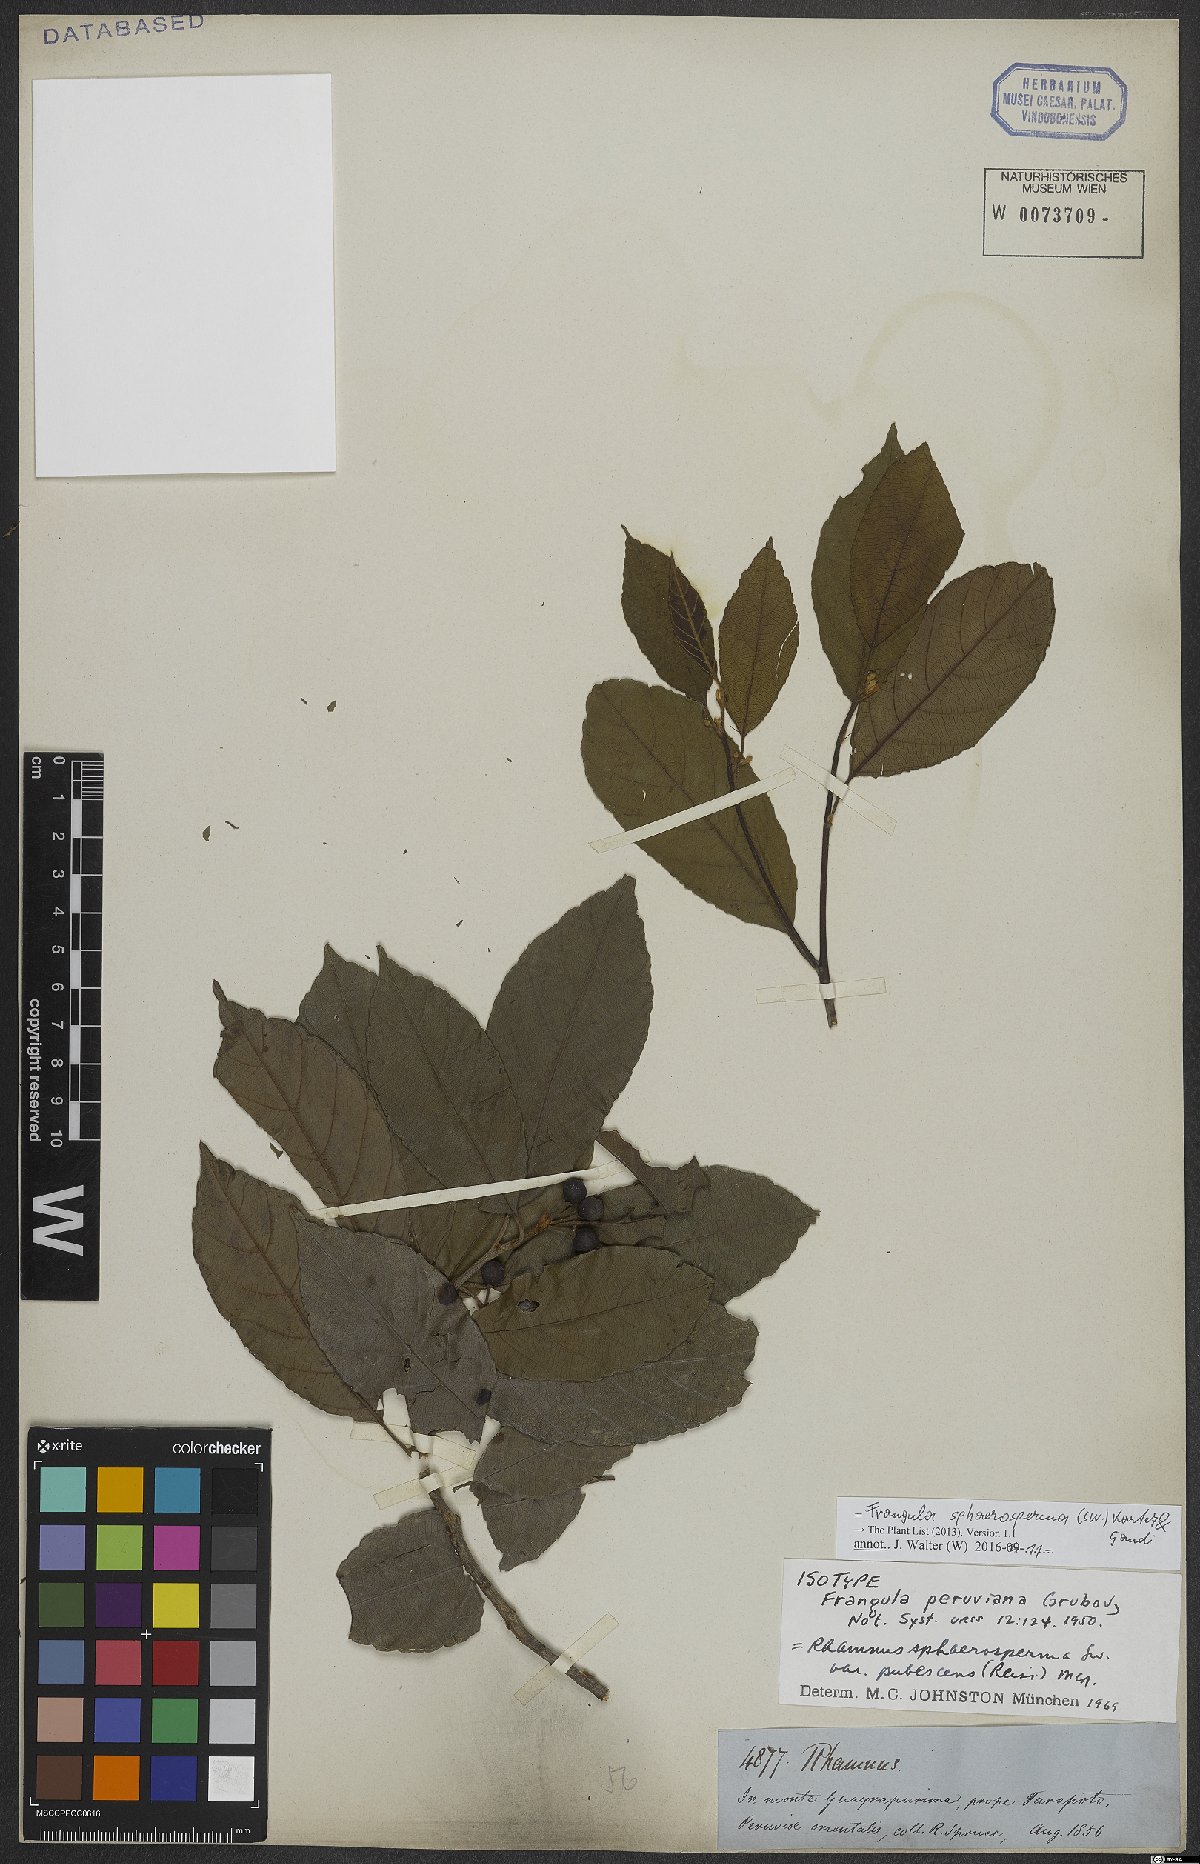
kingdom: Plantae
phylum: Tracheophyta
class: Magnoliopsida
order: Rosales
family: Rhamnaceae
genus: Frangula
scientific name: Frangula sphaerosperma
